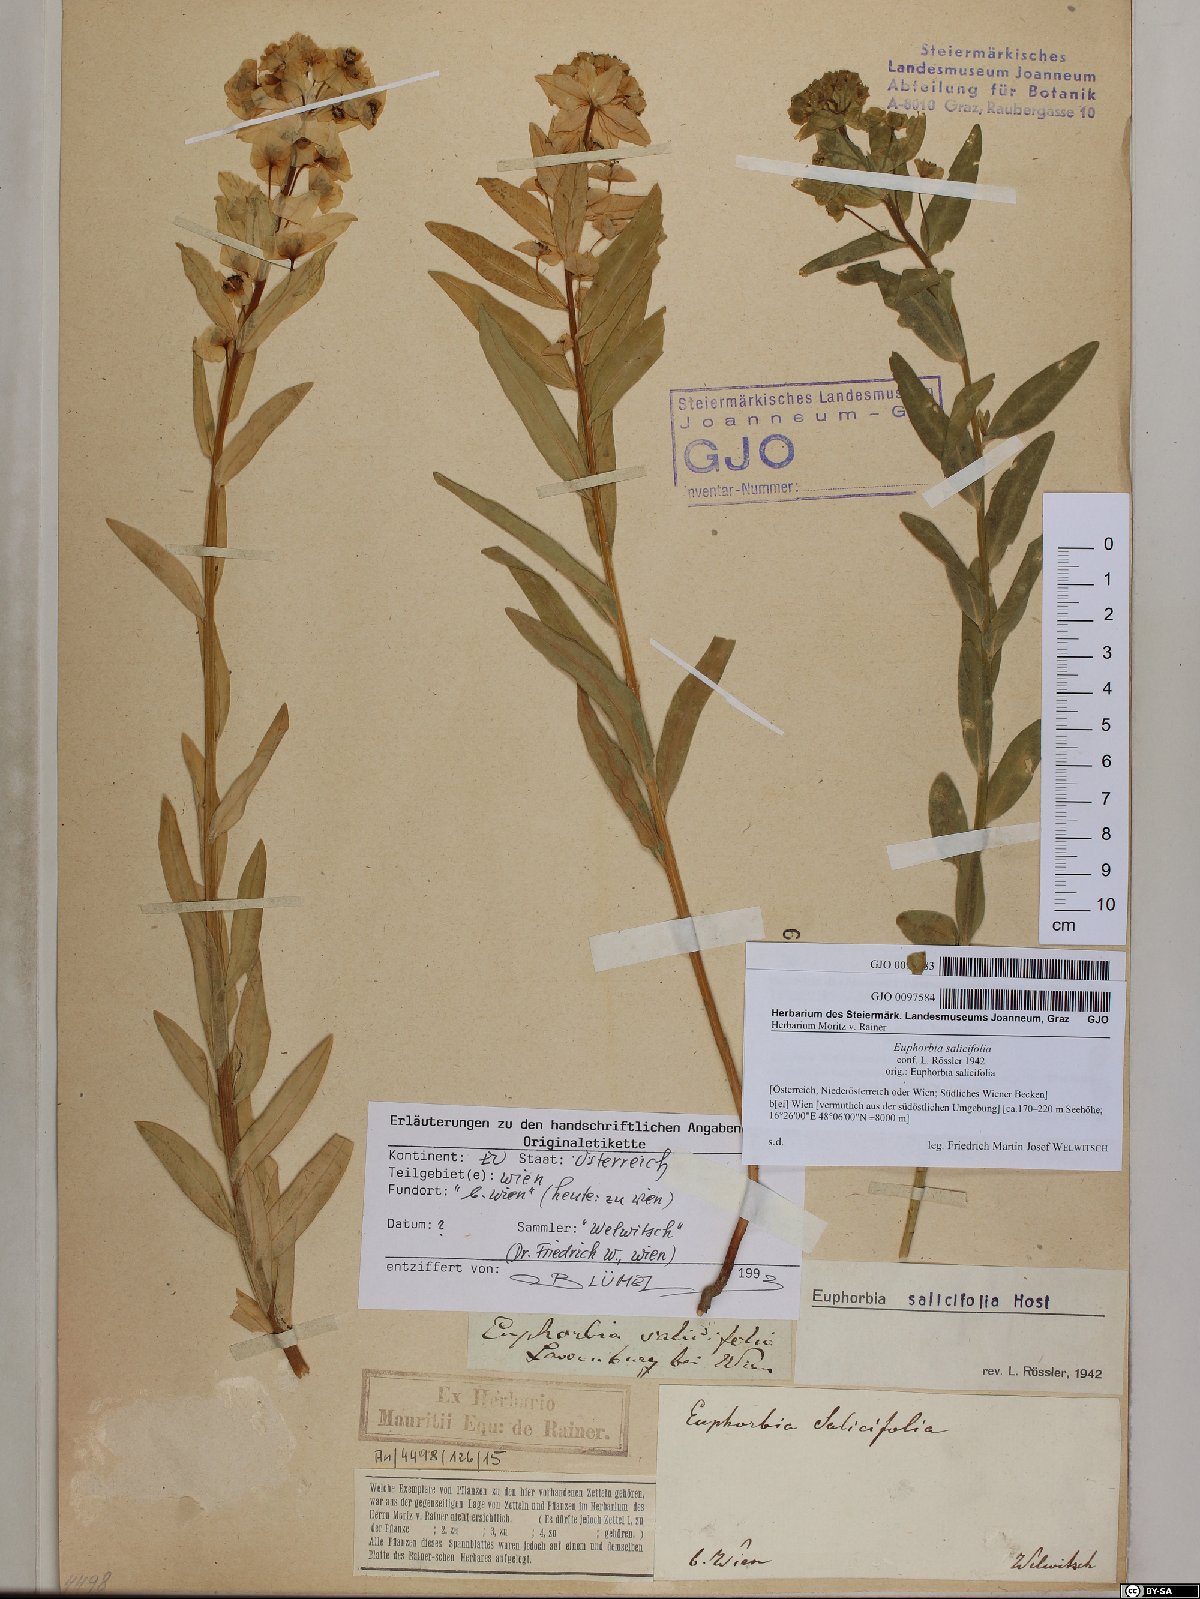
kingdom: Plantae
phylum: Tracheophyta
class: Magnoliopsida
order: Malpighiales
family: Euphorbiaceae
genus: Euphorbia
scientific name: Euphorbia salicifolia
